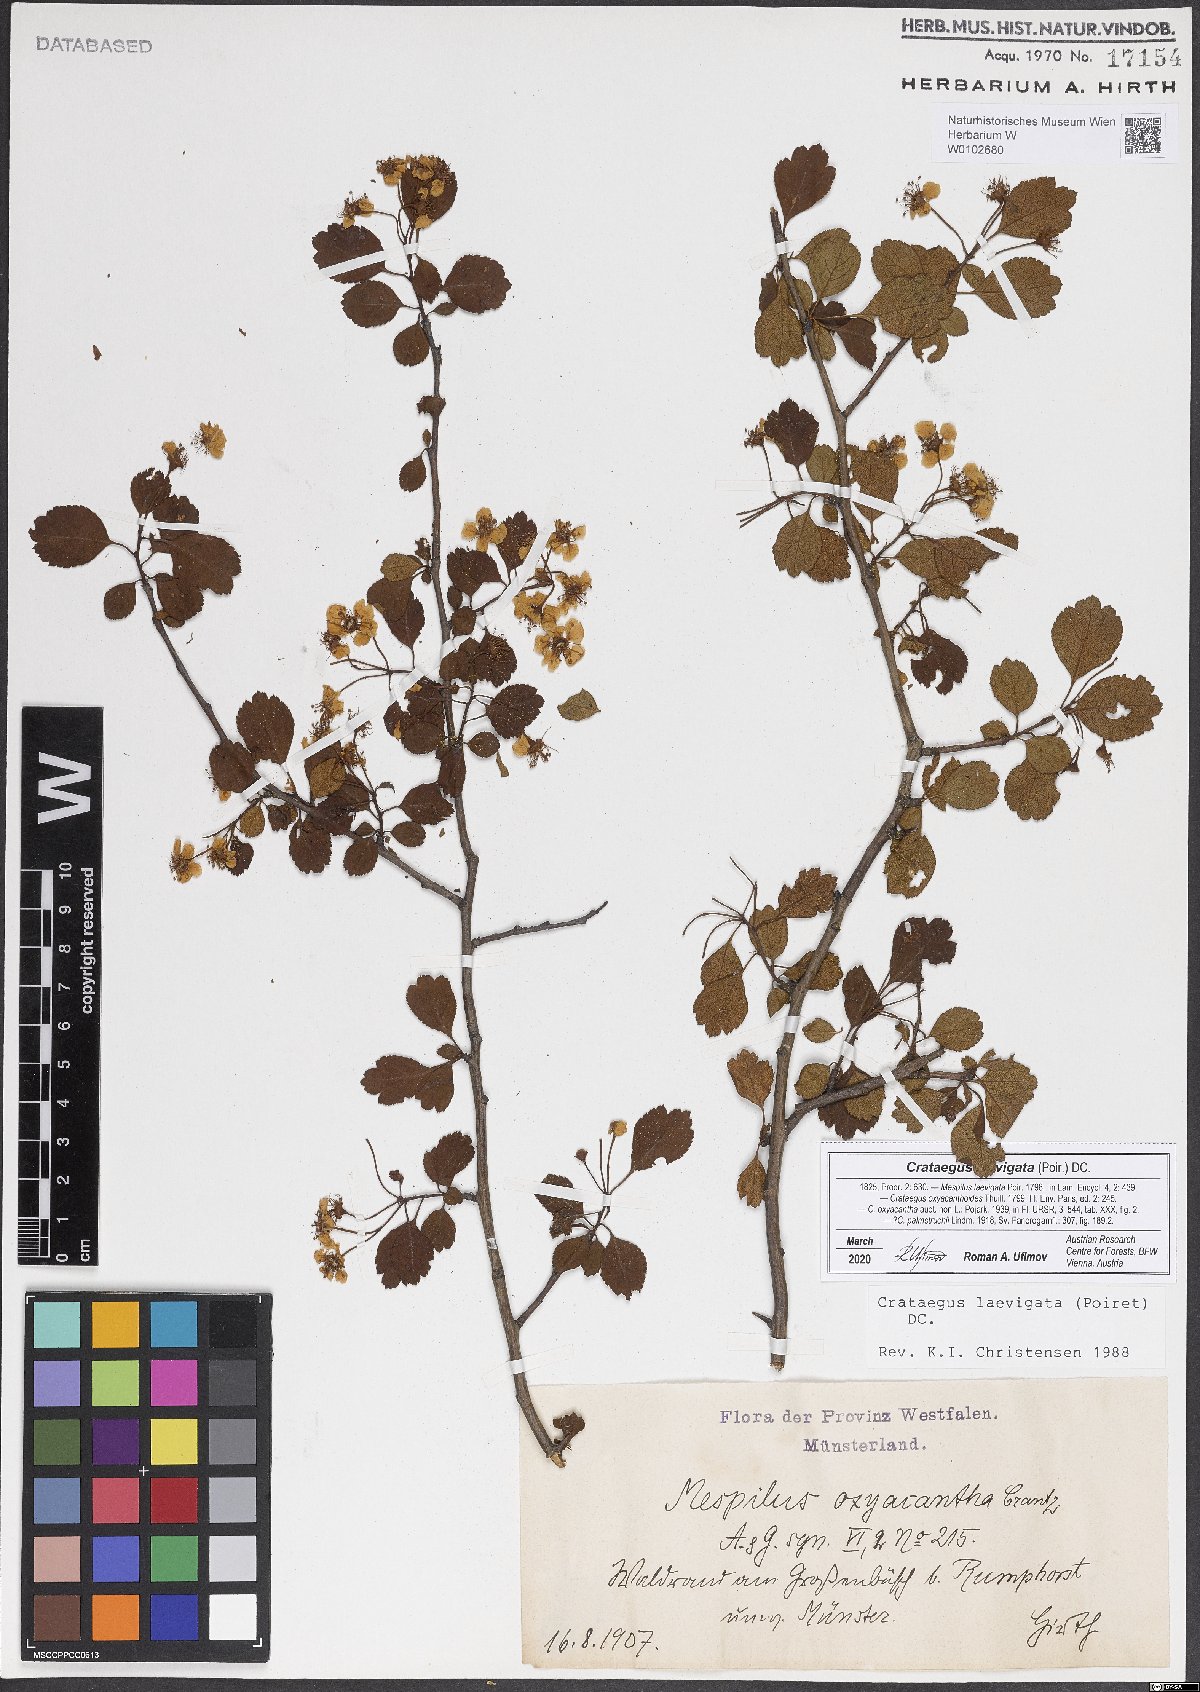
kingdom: Plantae
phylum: Tracheophyta
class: Magnoliopsida
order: Rosales
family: Rosaceae
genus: Crataegus
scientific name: Crataegus laevigata
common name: Midland hawthorn
